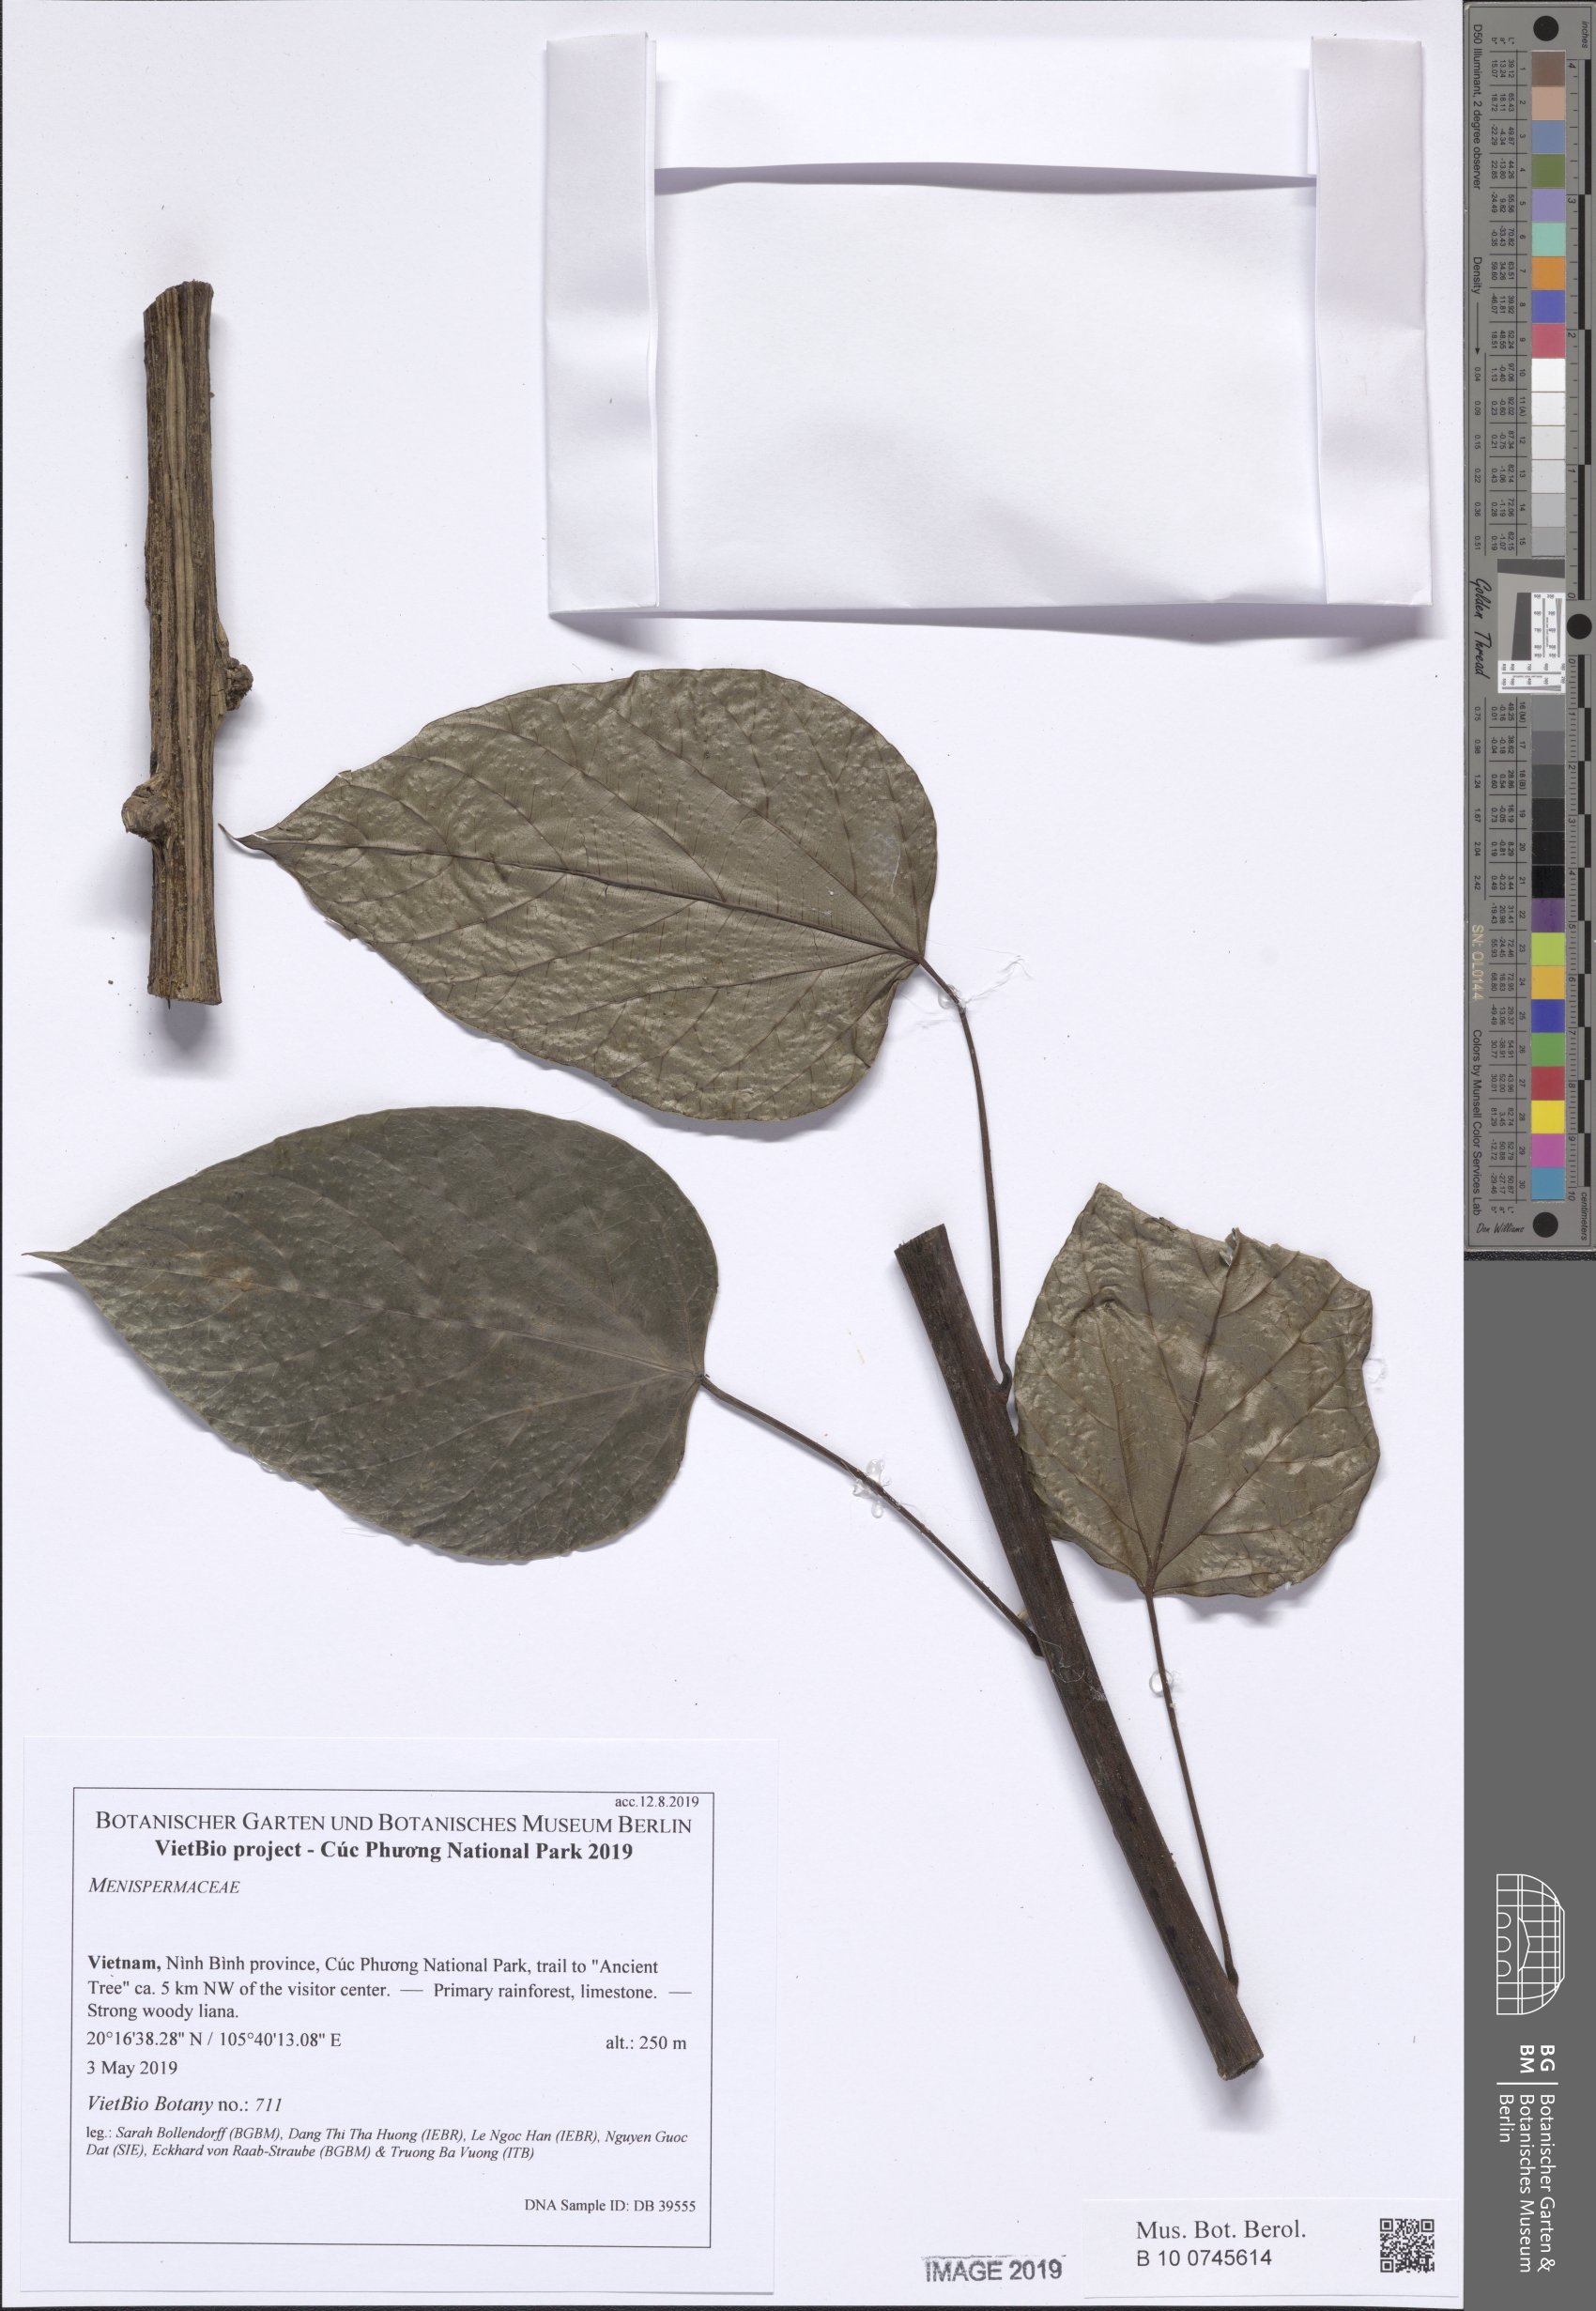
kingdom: Plantae
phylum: Tracheophyta
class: Magnoliopsida
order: Ranunculales
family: Menispermaceae
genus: Tinomiscium
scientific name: Tinomiscium petiolare
